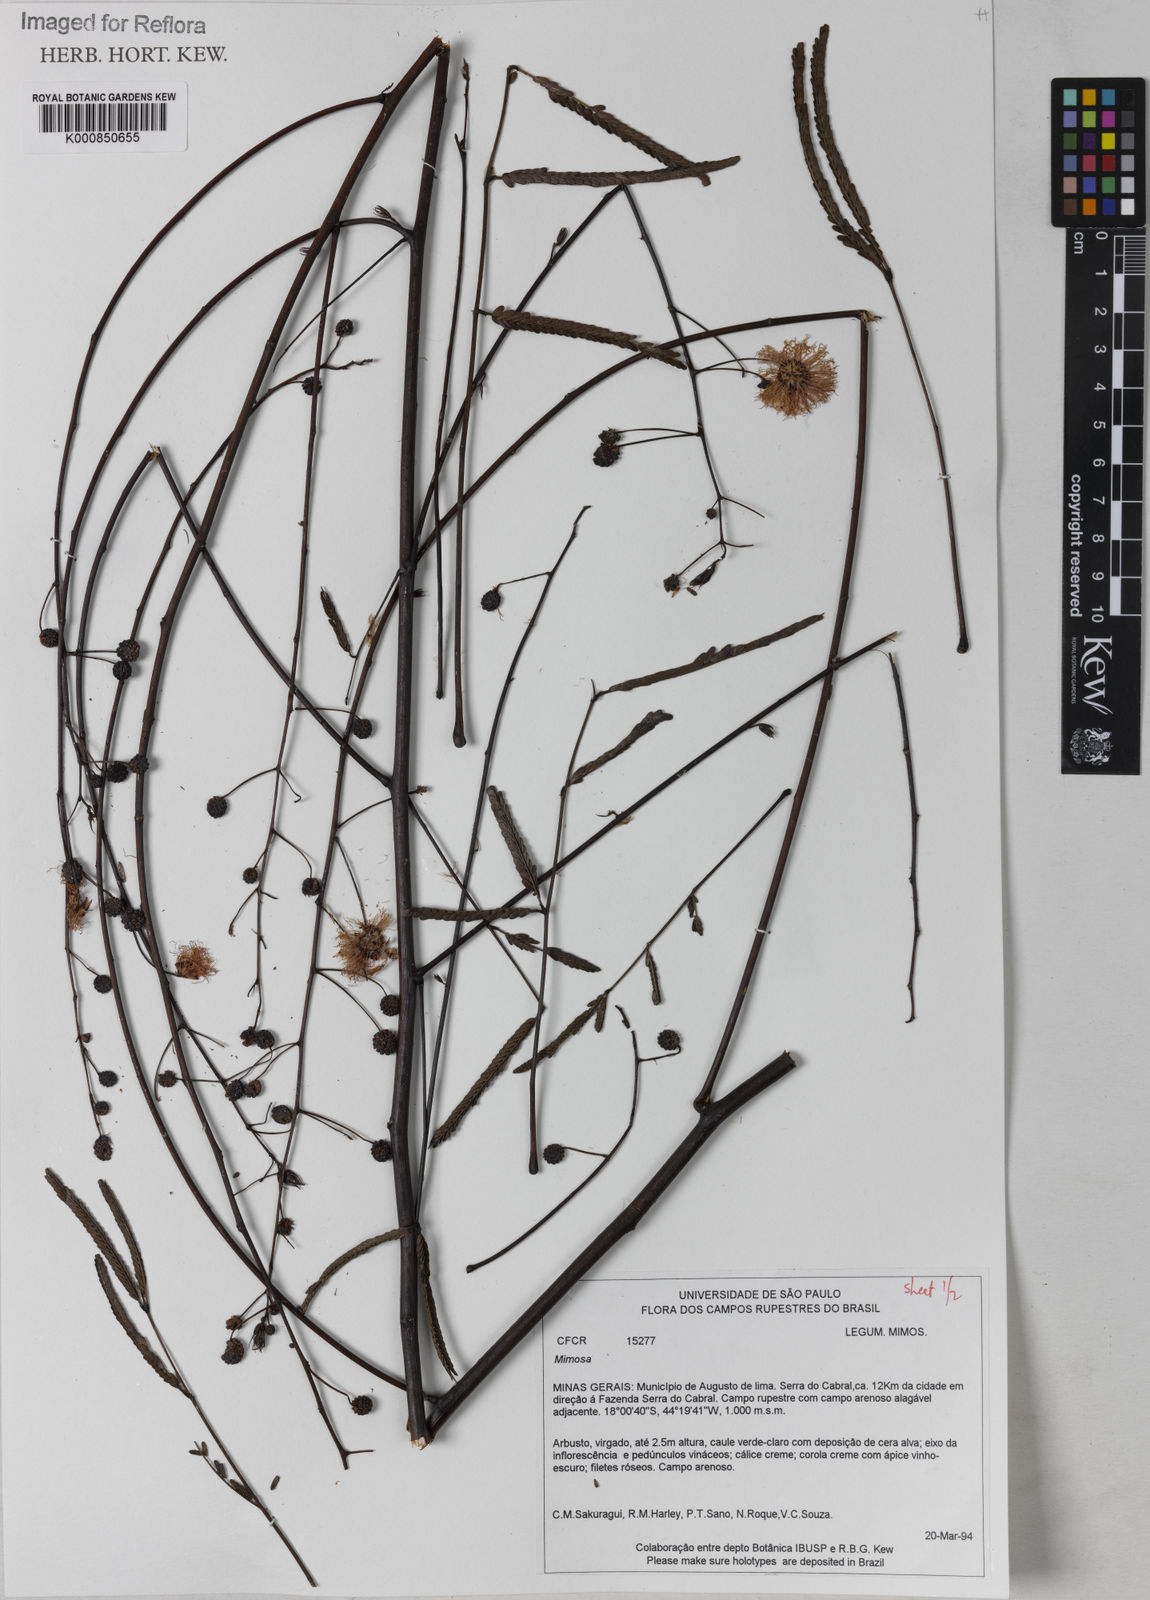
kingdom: Plantae
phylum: Tracheophyta
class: Magnoliopsida
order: Fabales
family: Fabaceae
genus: Mimosa
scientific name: Mimosa maguirei
